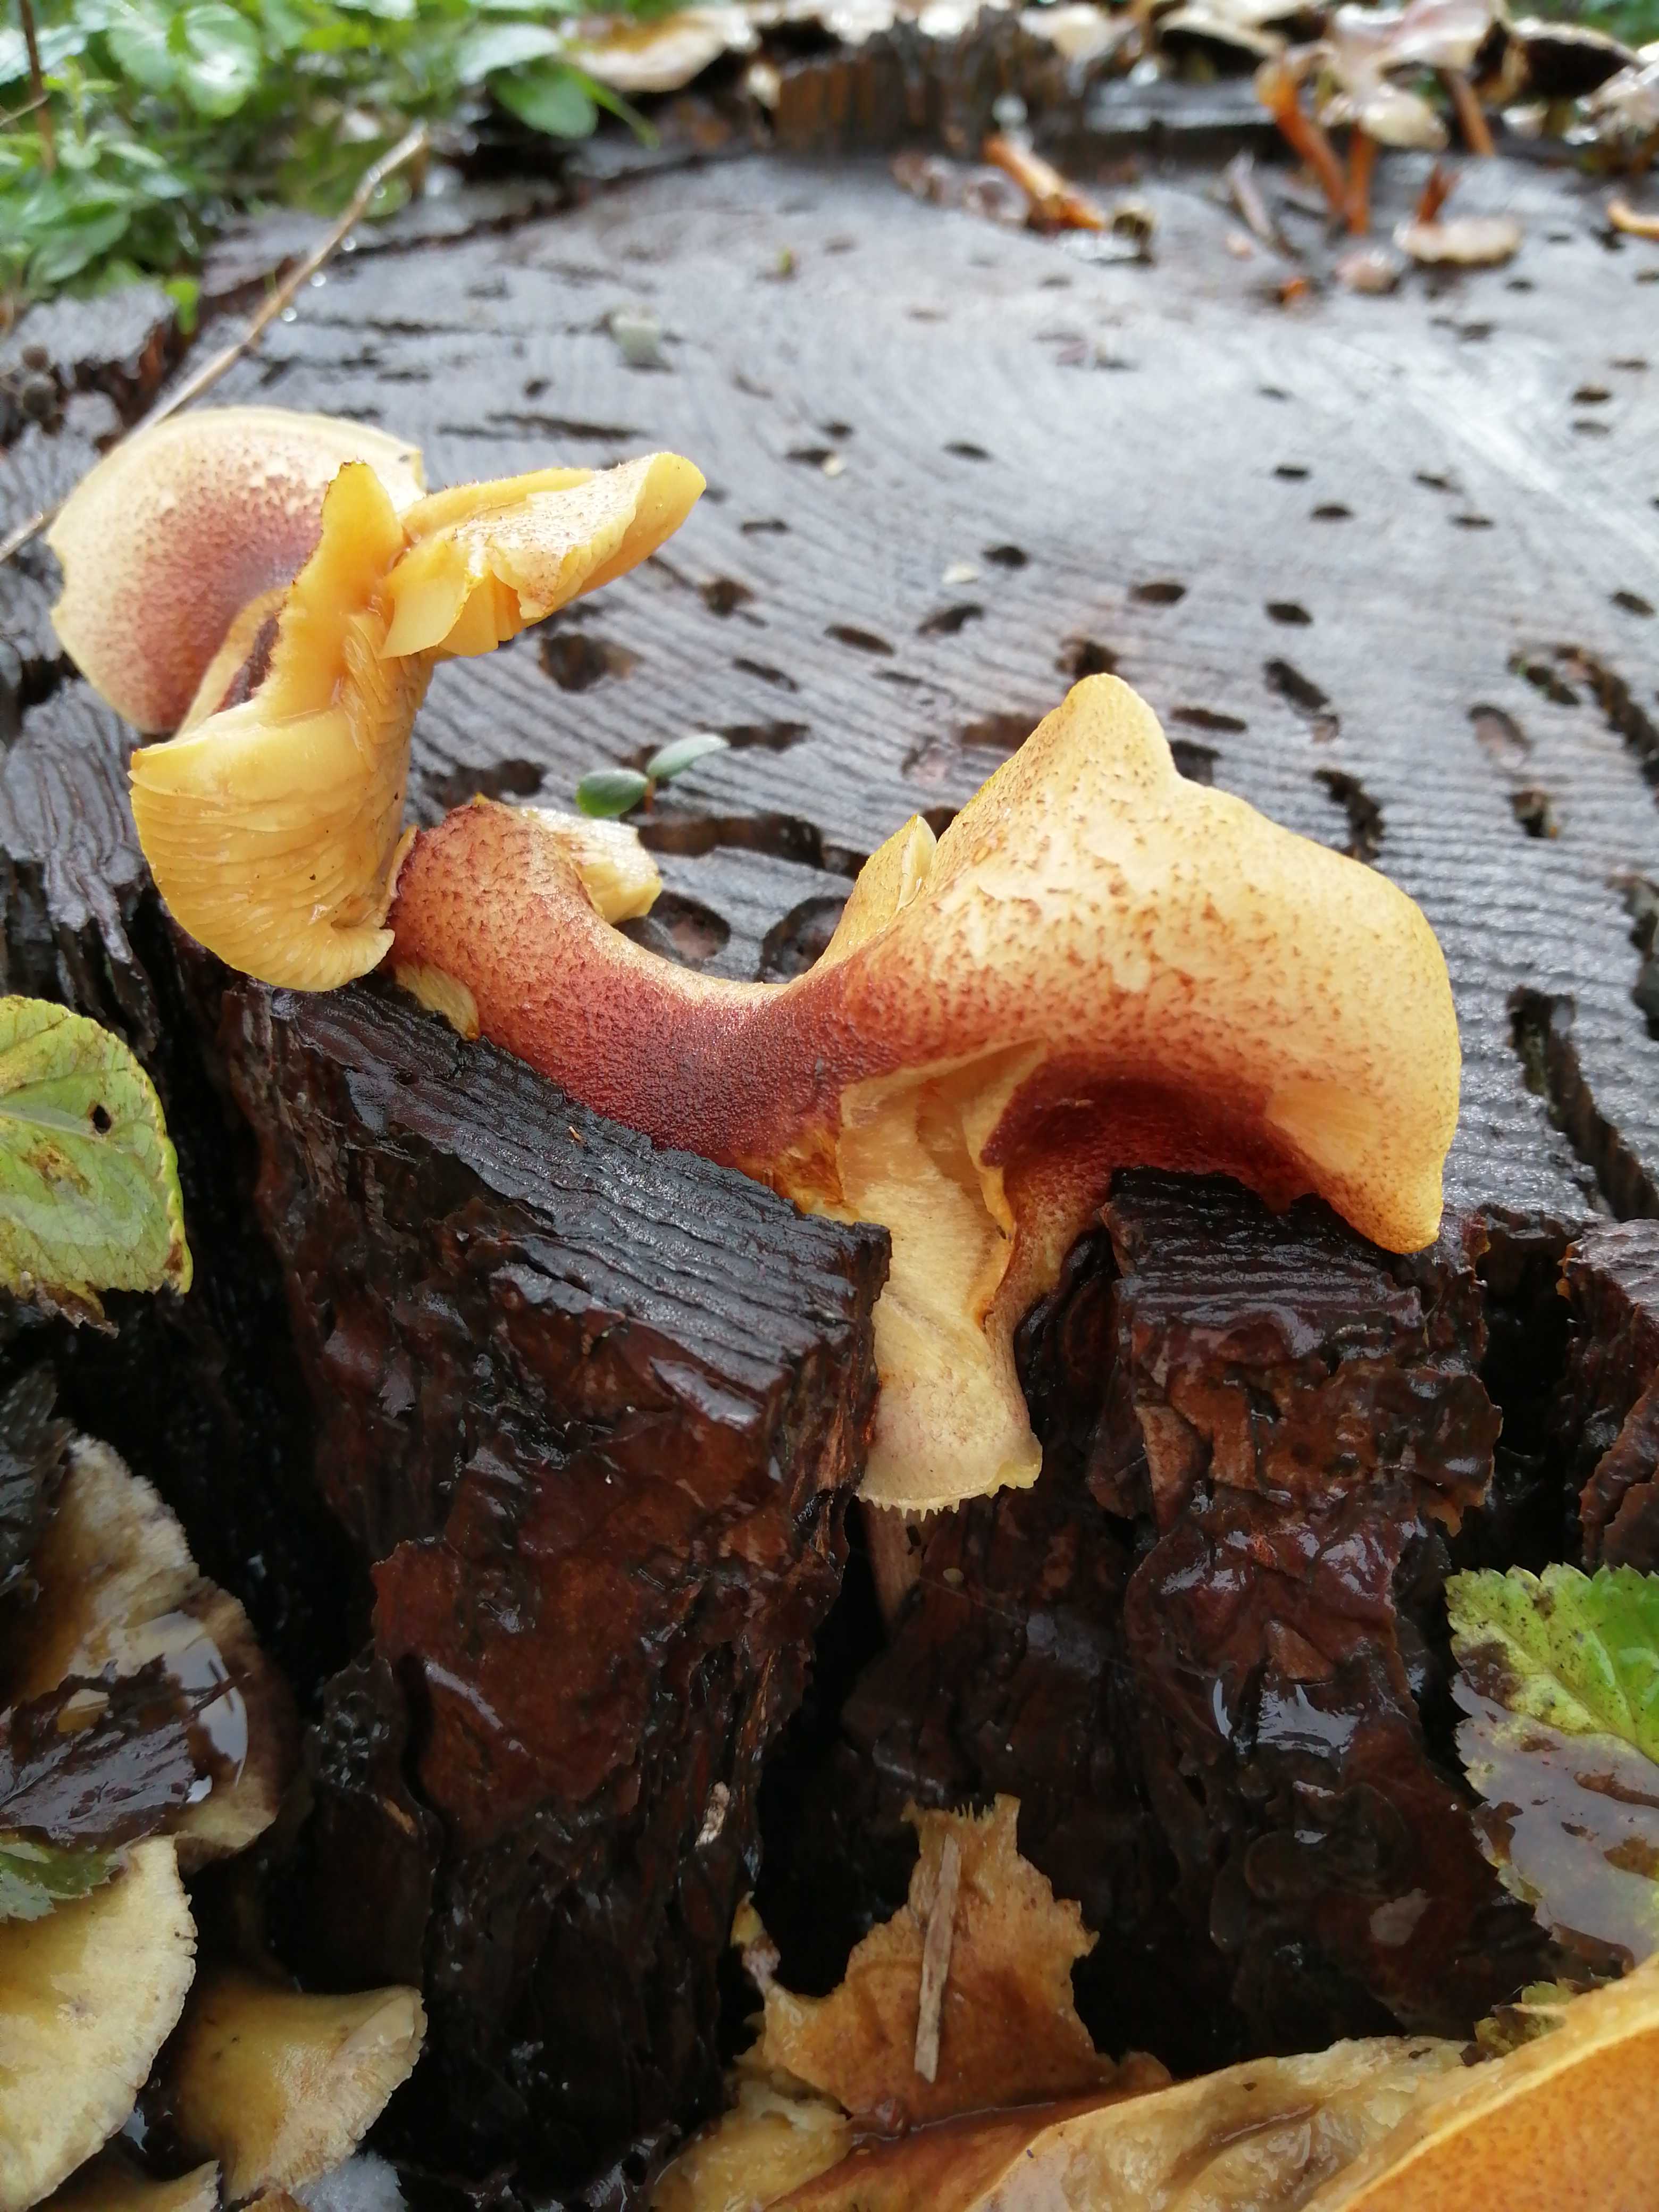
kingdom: Fungi
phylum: Basidiomycota
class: Agaricomycetes
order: Agaricales
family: Tricholomataceae
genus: Tricholomopsis
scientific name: Tricholomopsis rutilans
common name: purpur-væbnerhat
